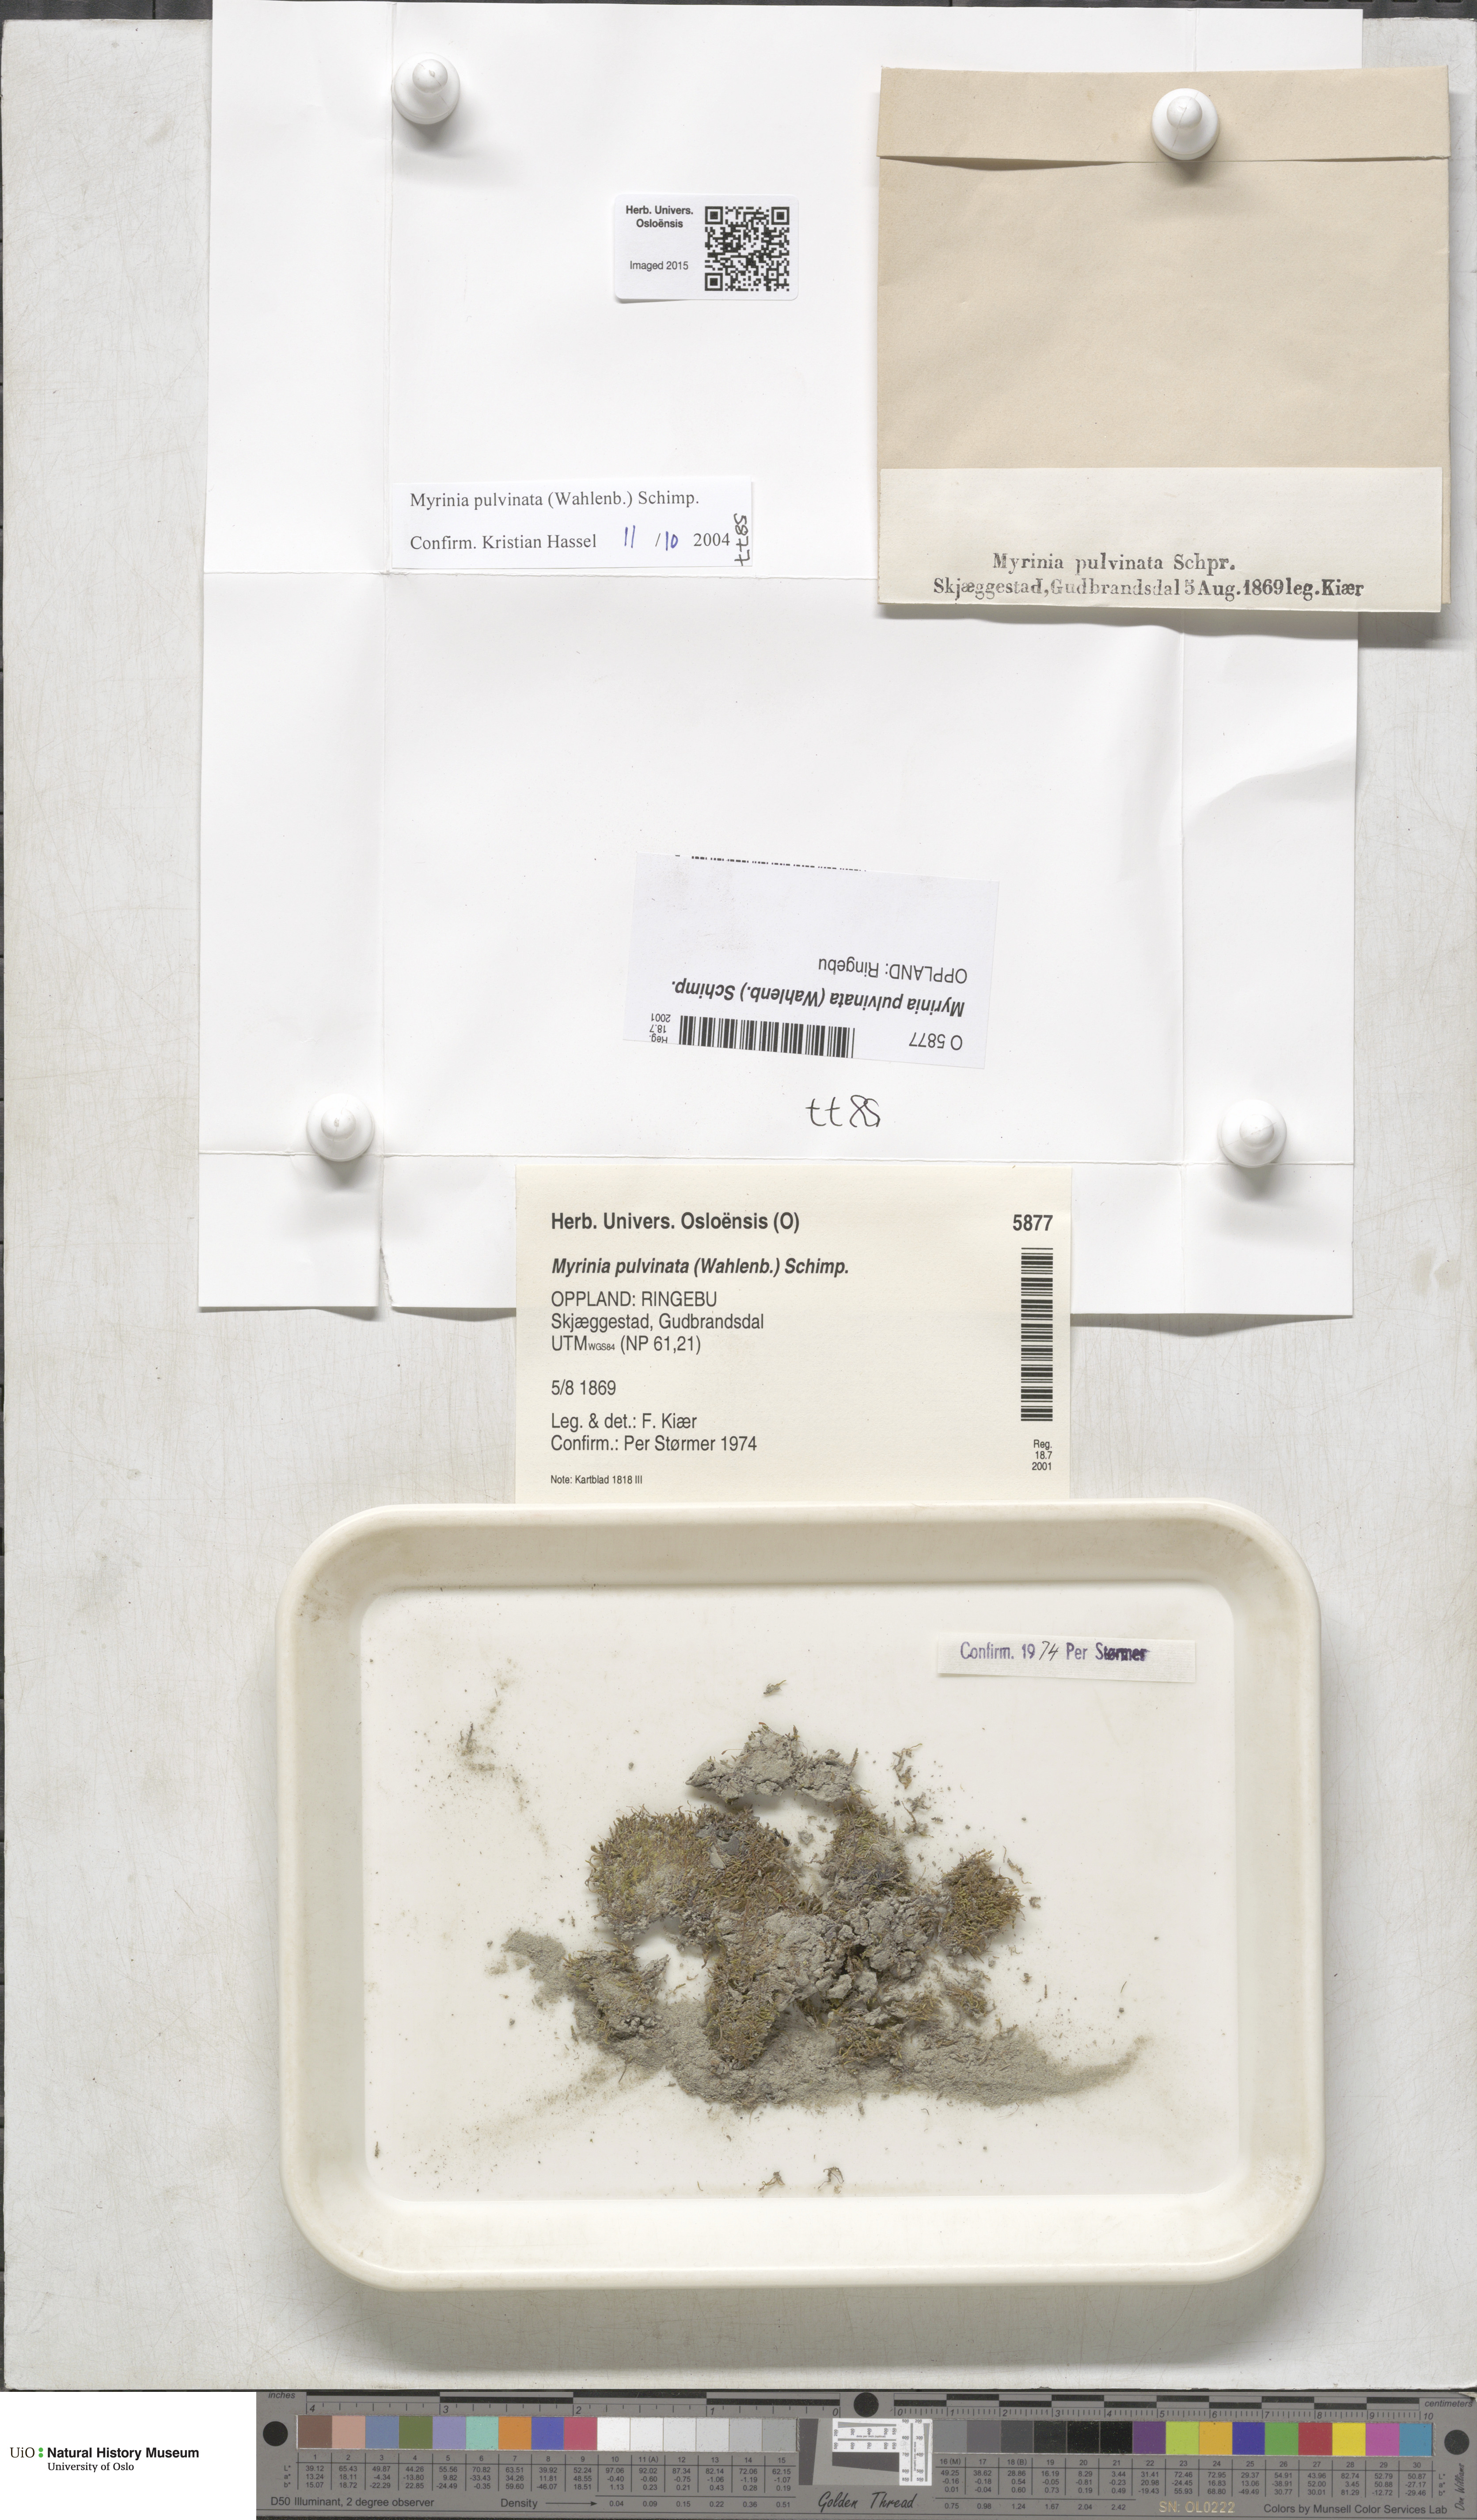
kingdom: Plantae
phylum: Bryophyta
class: Bryopsida
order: Hypnales
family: Myriniaceae
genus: Myrinia
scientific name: Myrinia pulvinata
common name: Flood-moss
